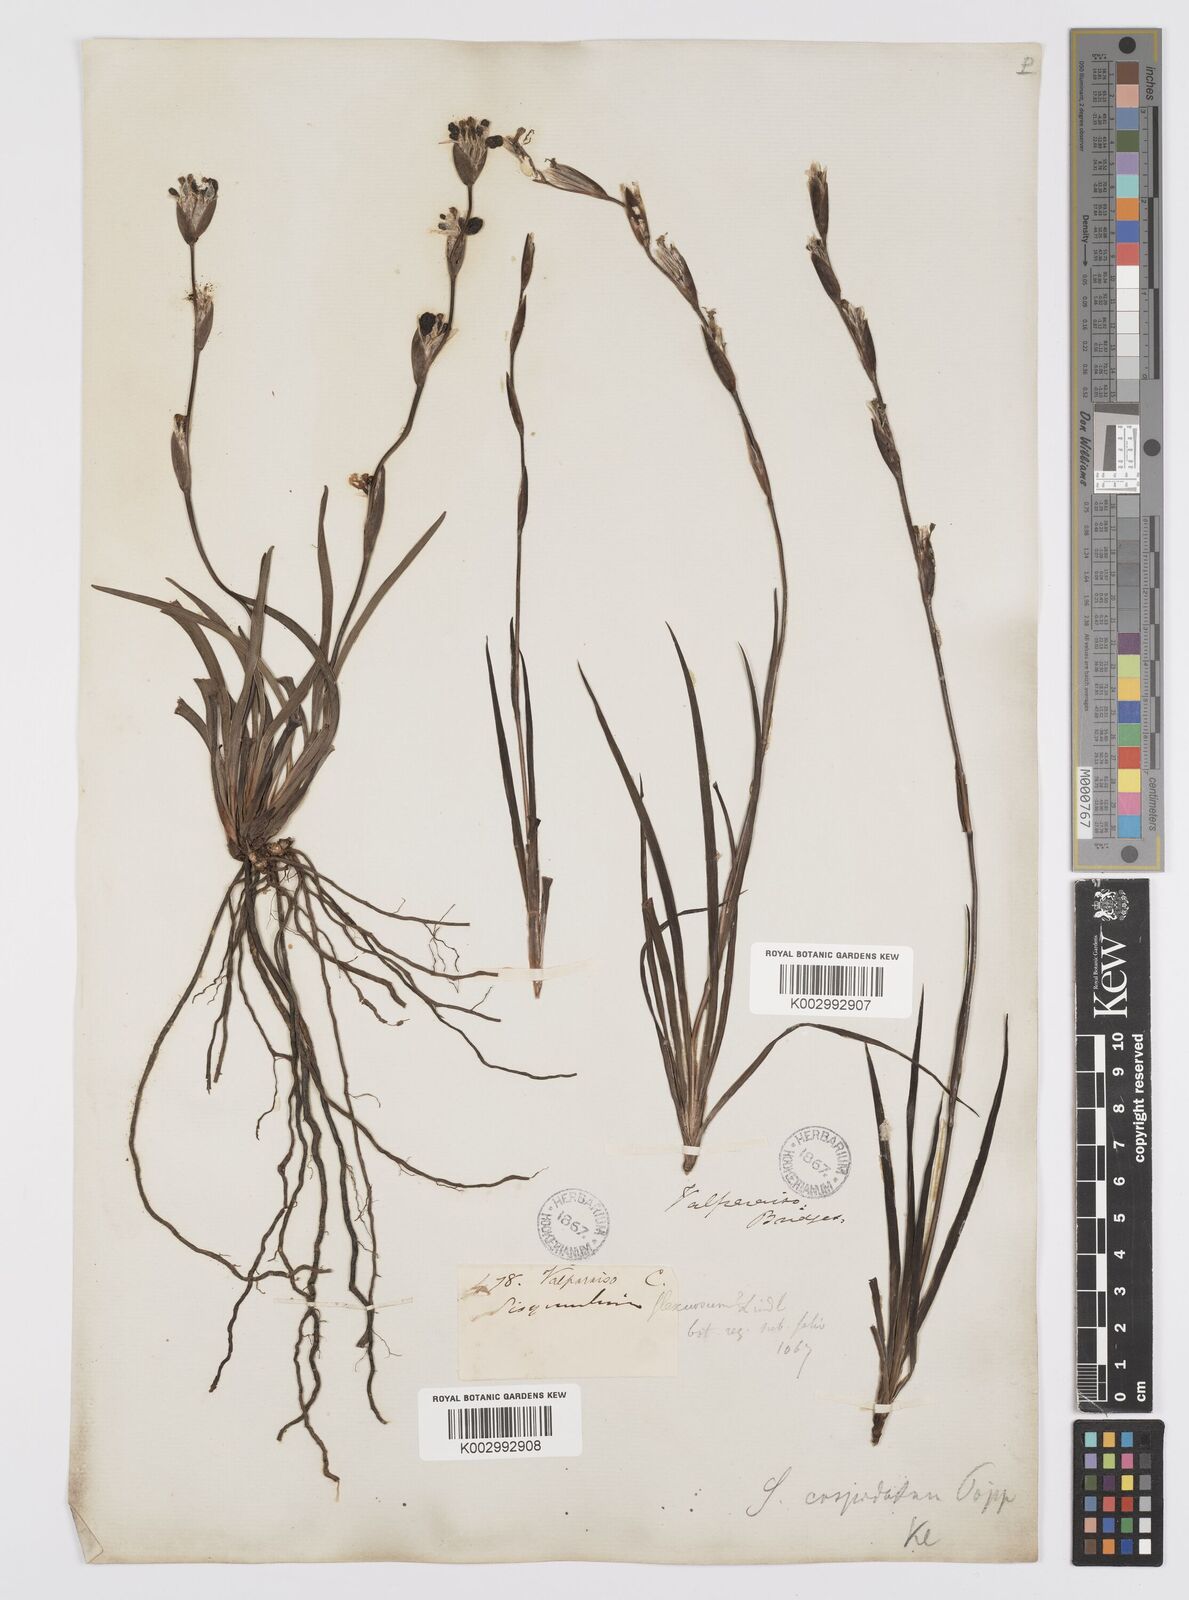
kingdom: Plantae
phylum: Tracheophyta
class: Liliopsida
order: Asparagales
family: Iridaceae
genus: Sisyrinchium
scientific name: Sisyrinchium cuspidatum
